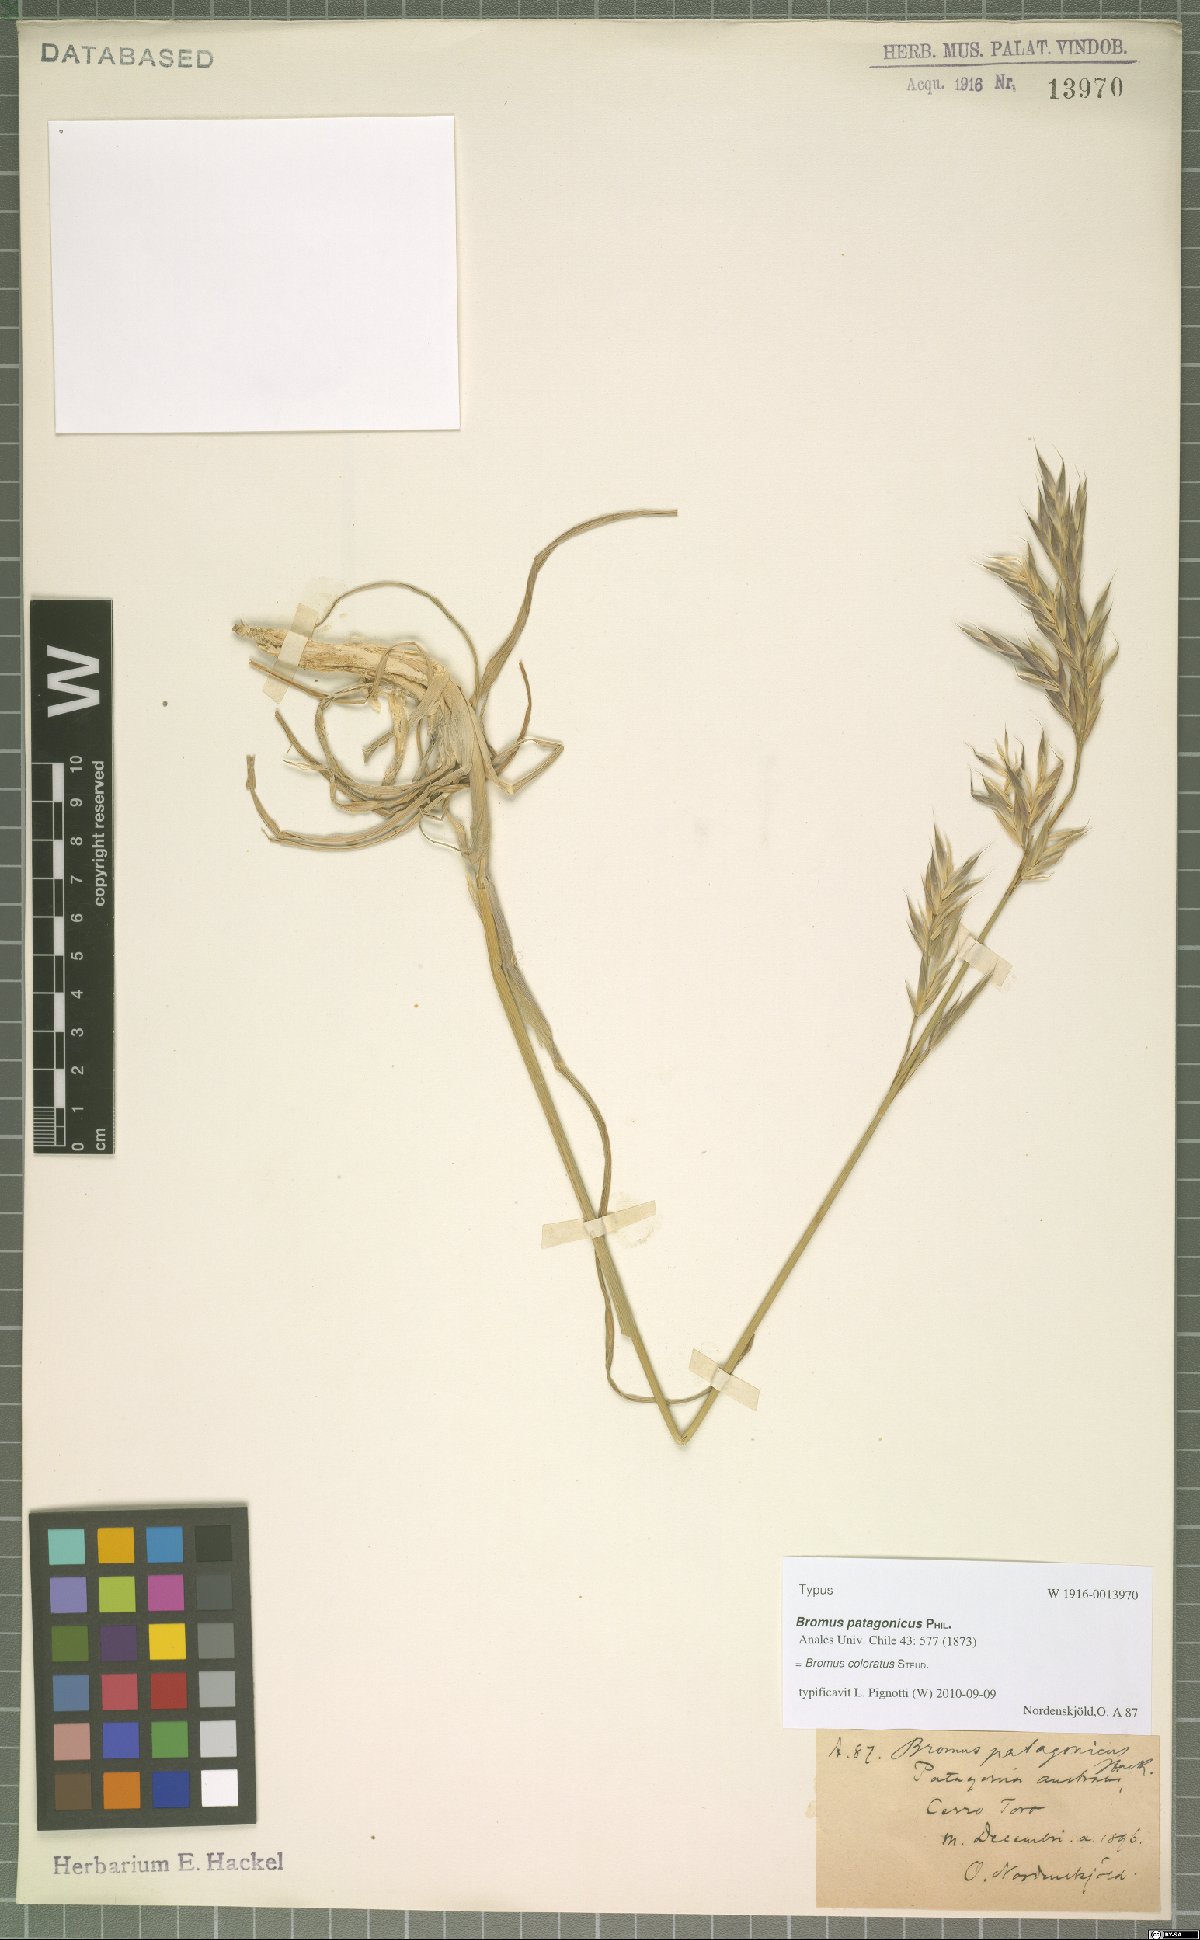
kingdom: Plantae
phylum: Tracheophyta
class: Liliopsida
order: Poales
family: Poaceae
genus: Bromus
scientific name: Bromus coloratus
